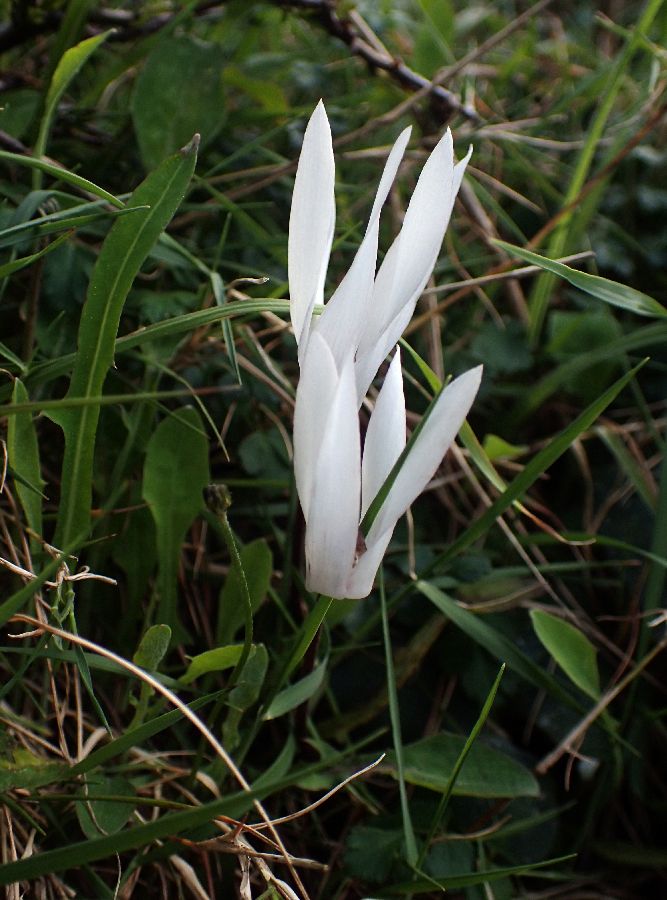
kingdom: Plantae
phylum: Tracheophyta
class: Magnoliopsida
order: Ericales
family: Primulaceae
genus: Cyclamen
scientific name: Cyclamen creticum
